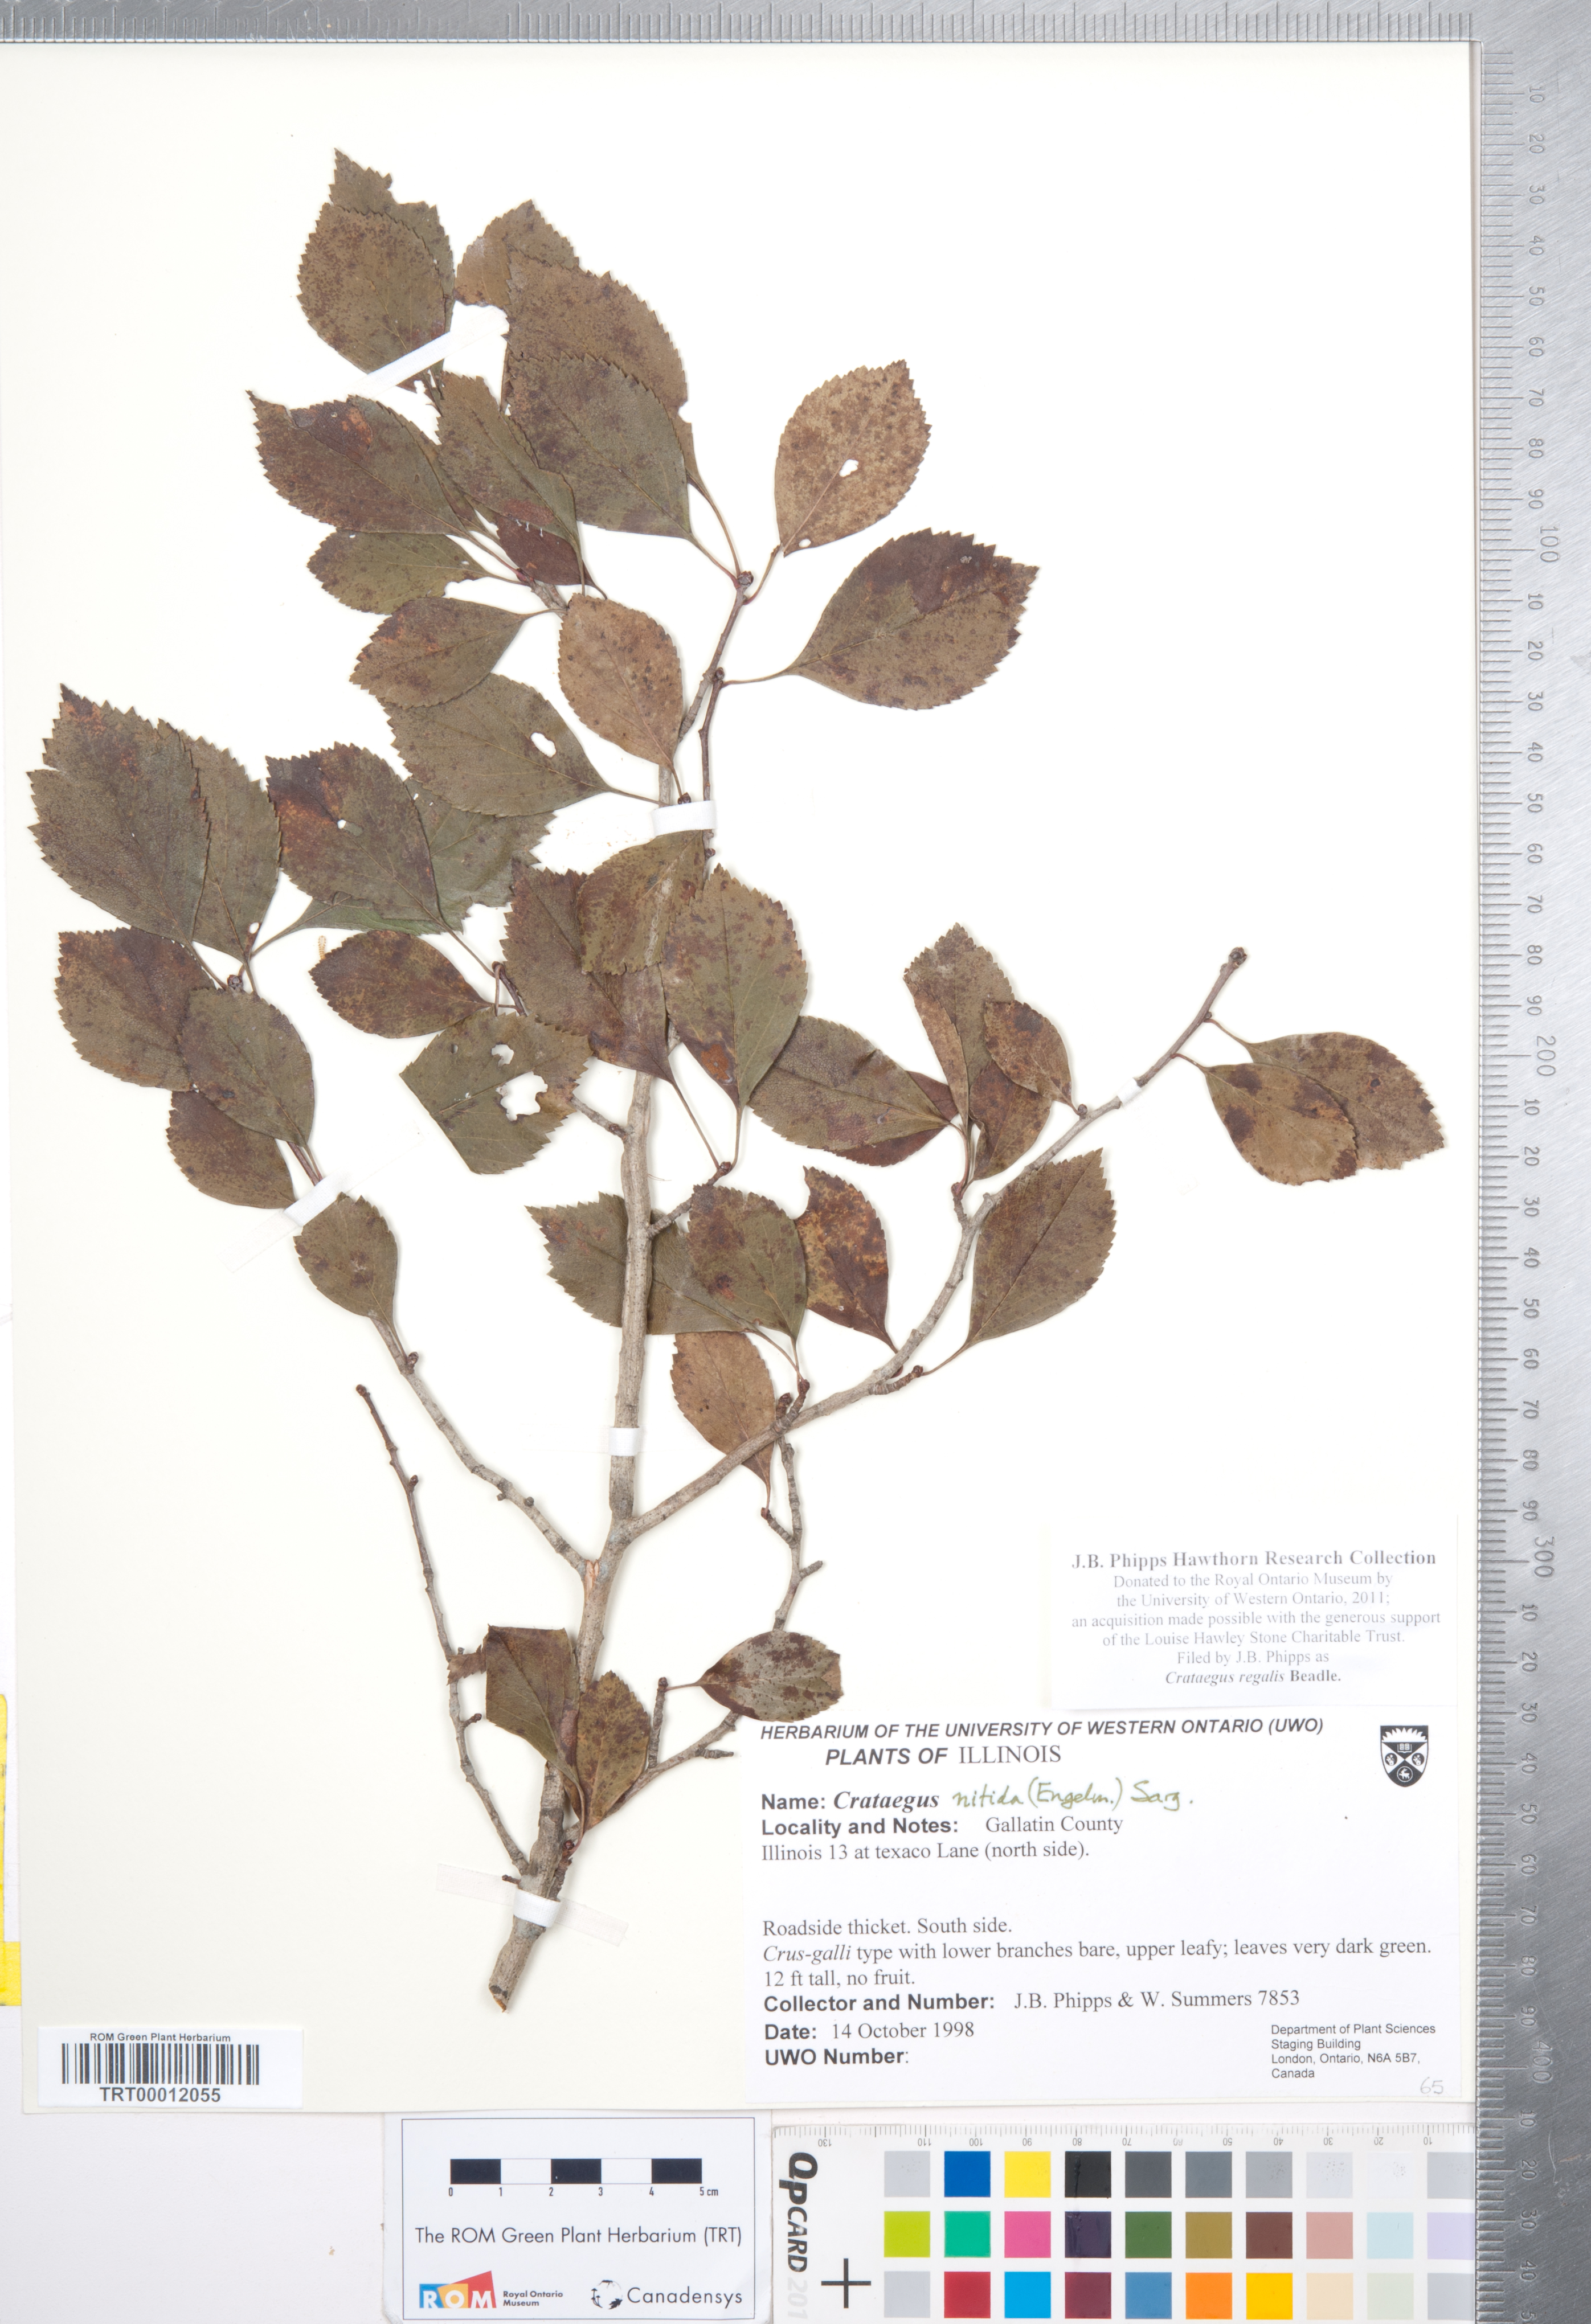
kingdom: Plantae
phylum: Tracheophyta
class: Magnoliopsida
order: Rosales
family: Rosaceae
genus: Crataegus
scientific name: Crataegus crus-galli
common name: Cockspurthorn
